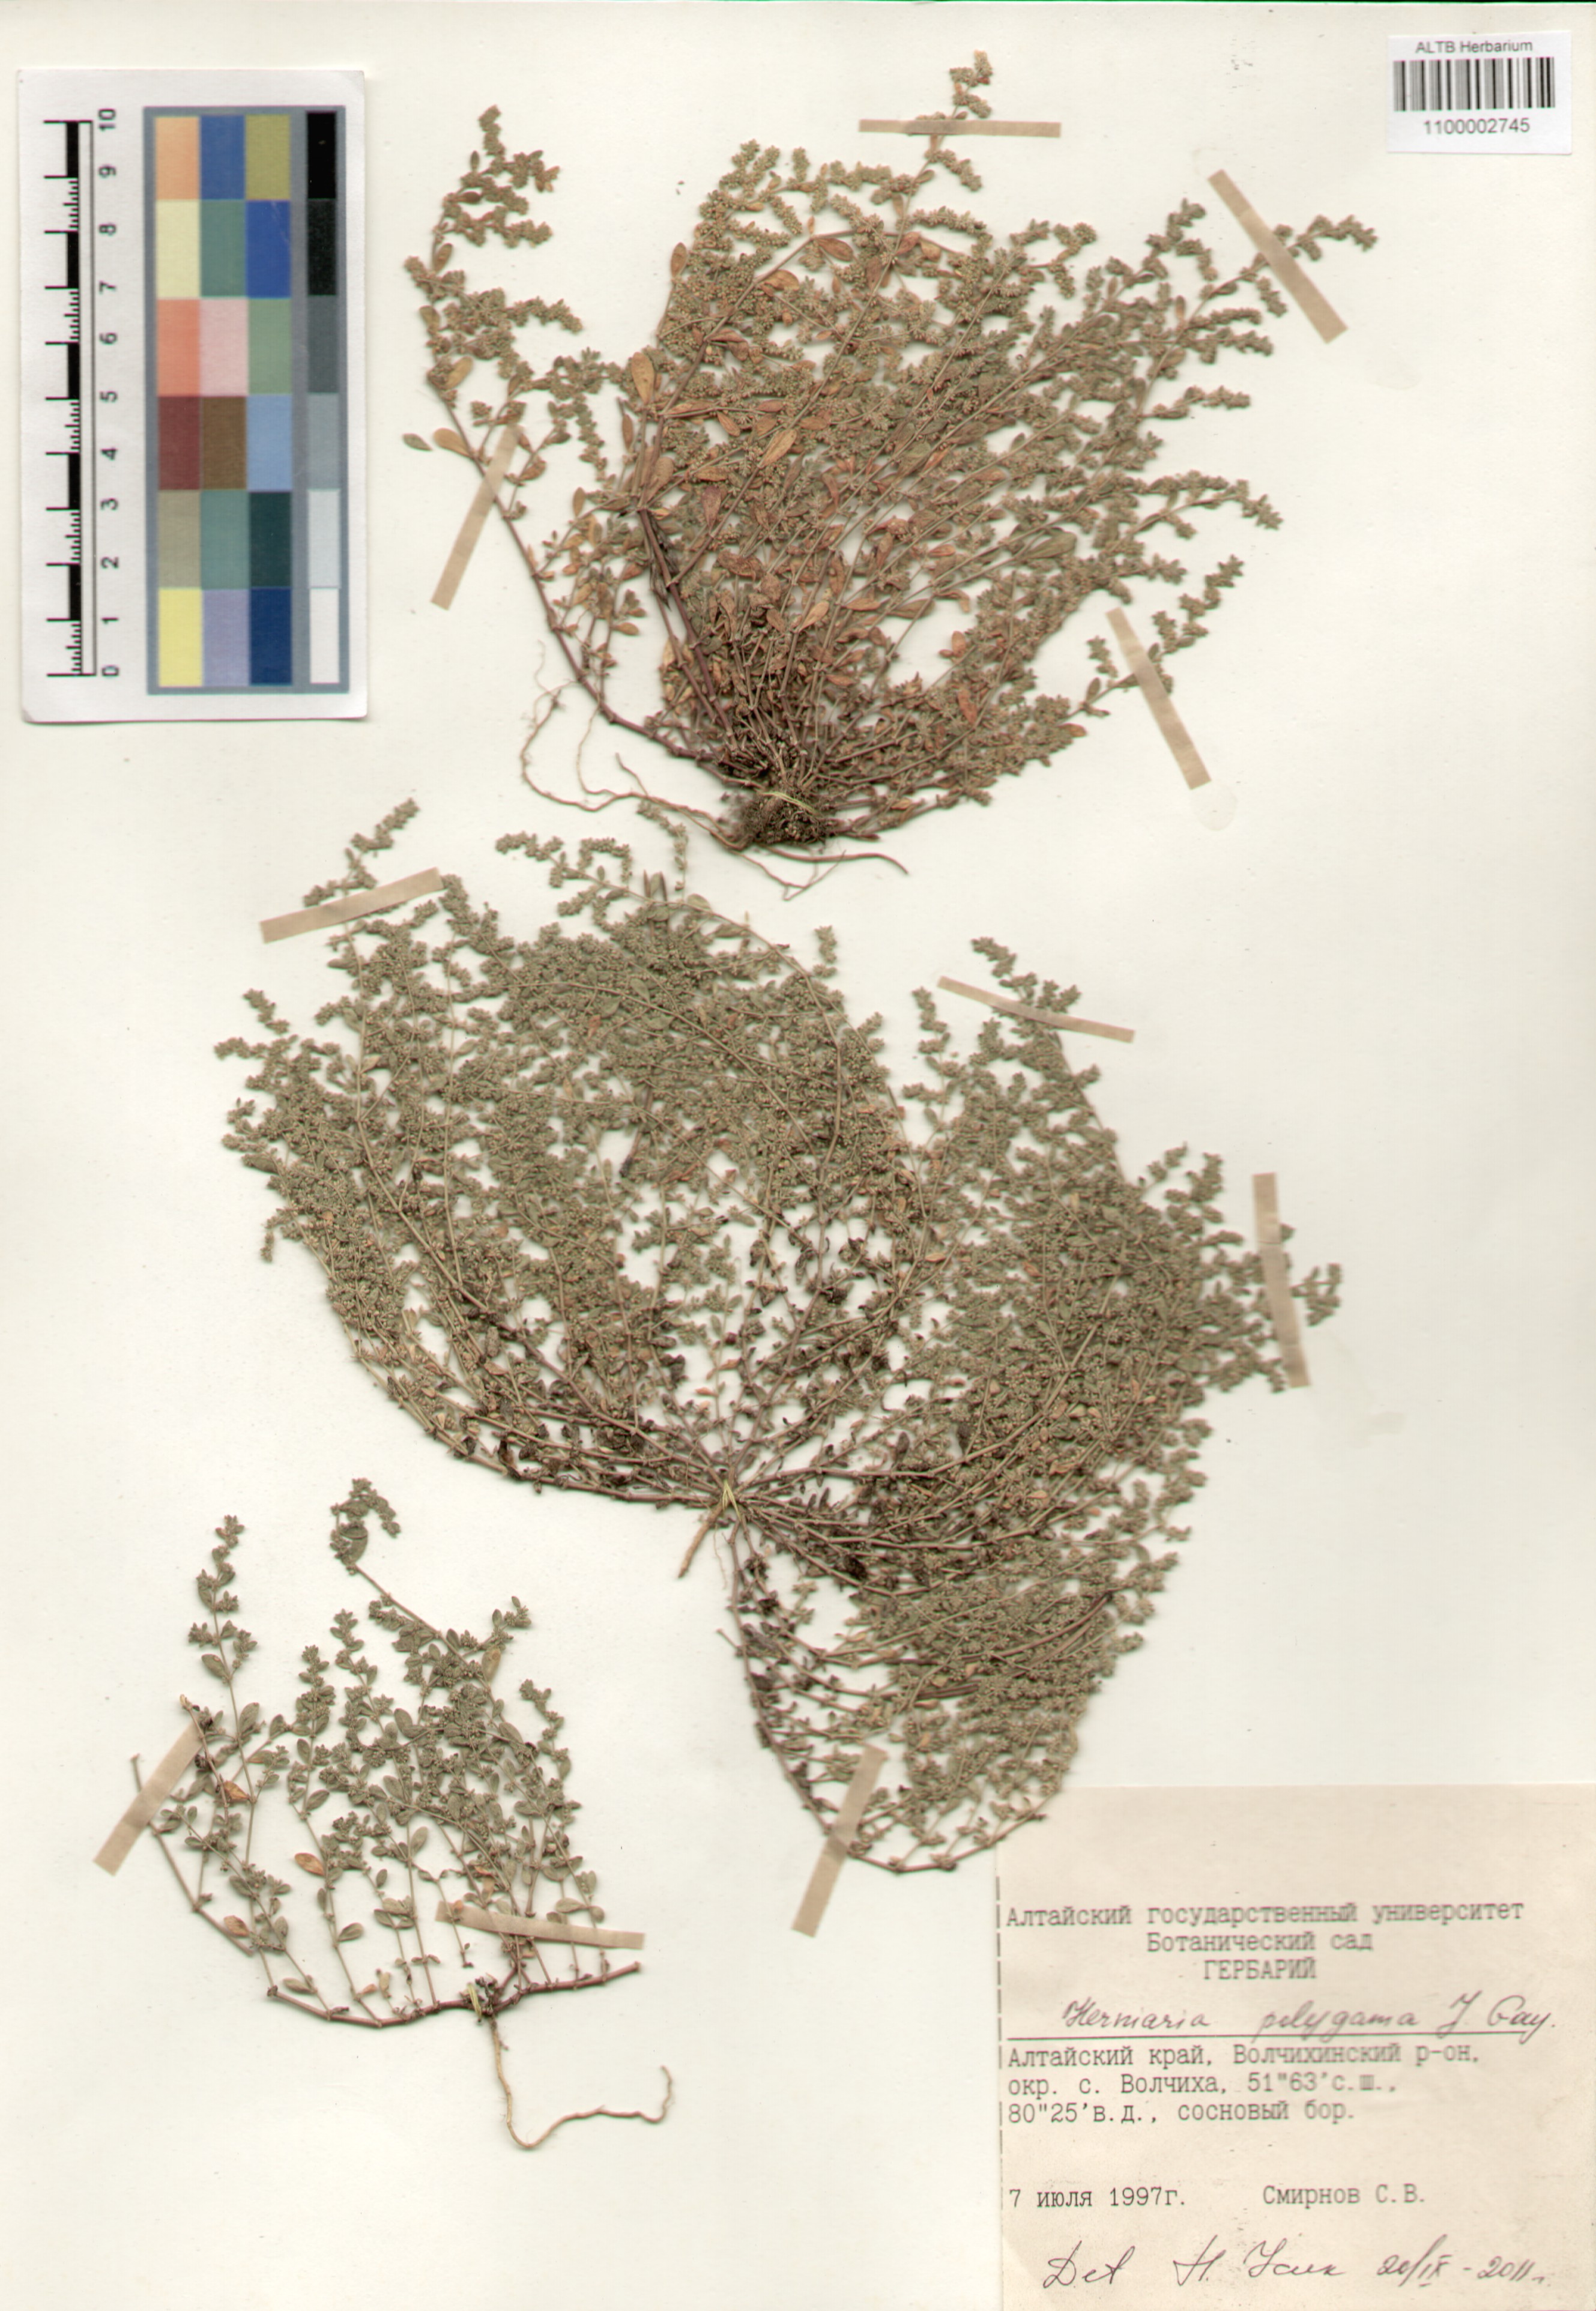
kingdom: Plantae
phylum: Tracheophyta
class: Magnoliopsida
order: Caryophyllales
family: Caryophyllaceae
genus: Herniaria
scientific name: Herniaria polygama
